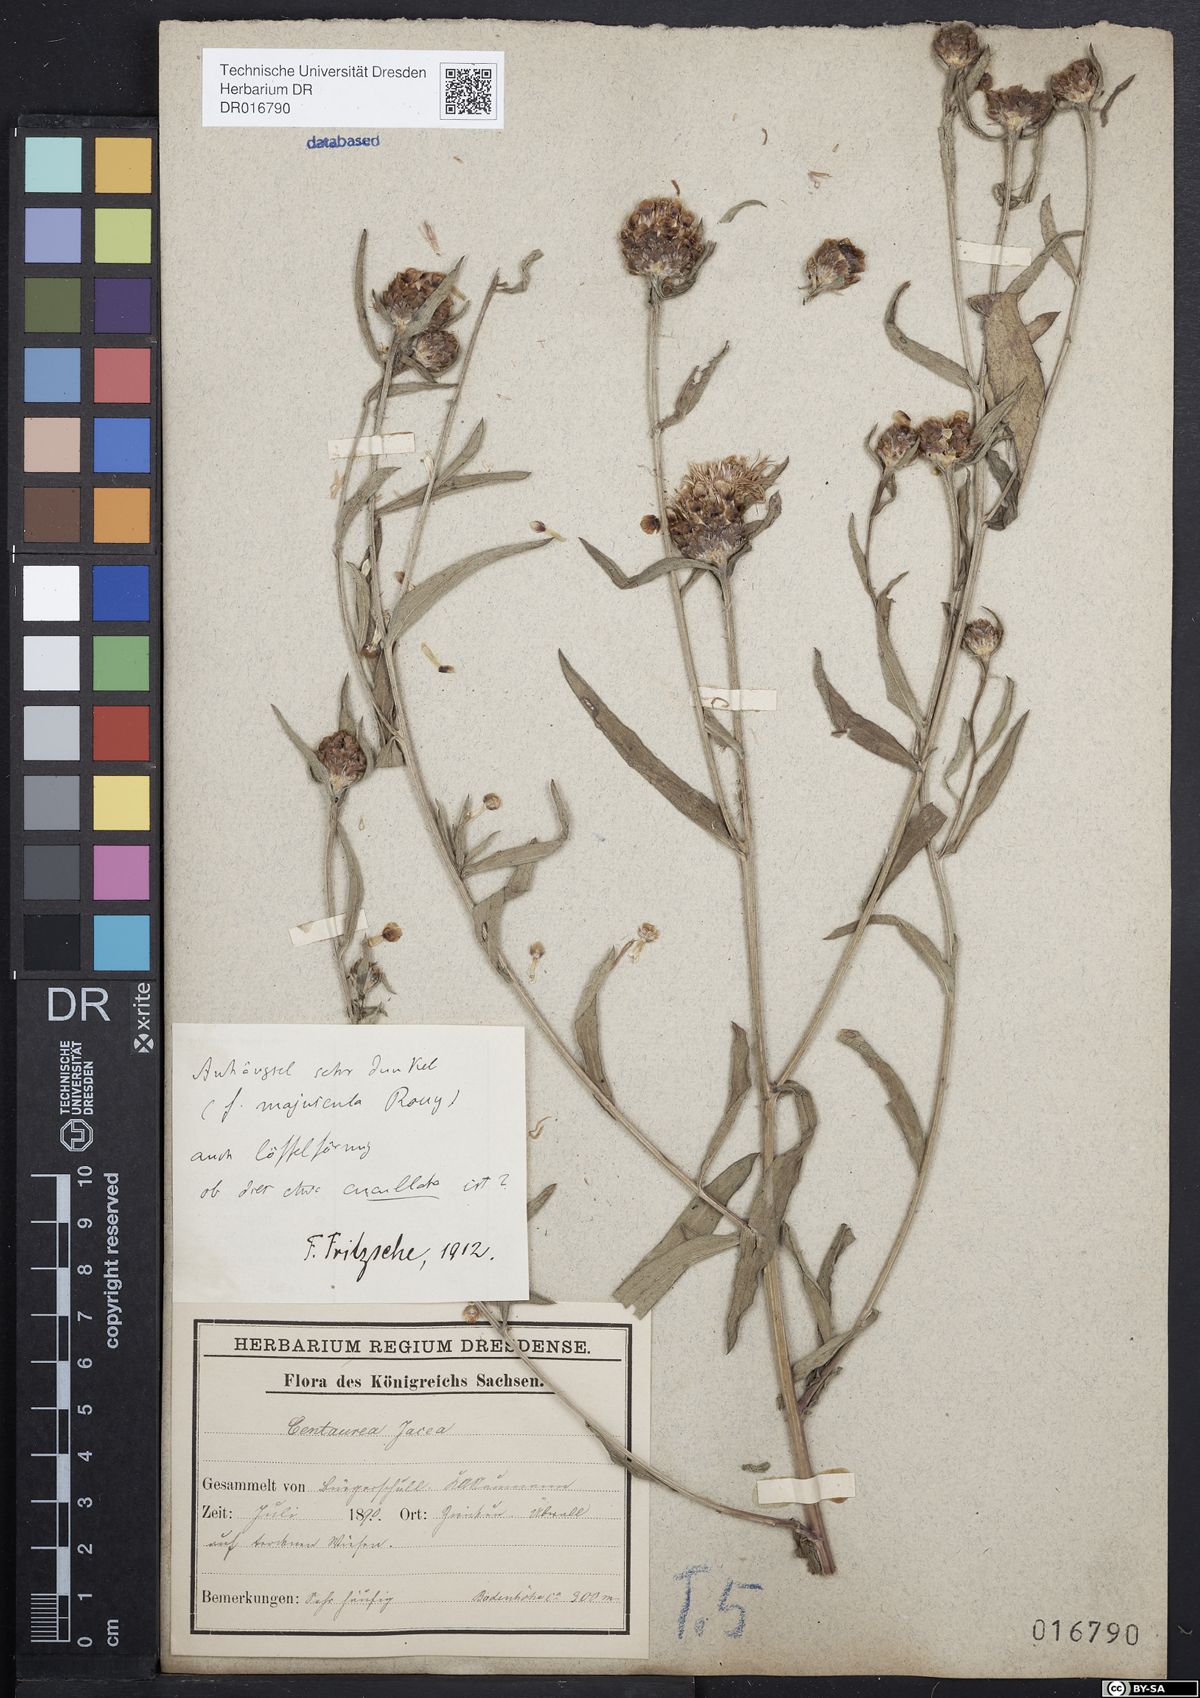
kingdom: Plantae
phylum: Tracheophyta
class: Magnoliopsida
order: Asterales
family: Asteraceae
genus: Centaurea
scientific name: Centaurea jacea
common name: Brown knapweed
